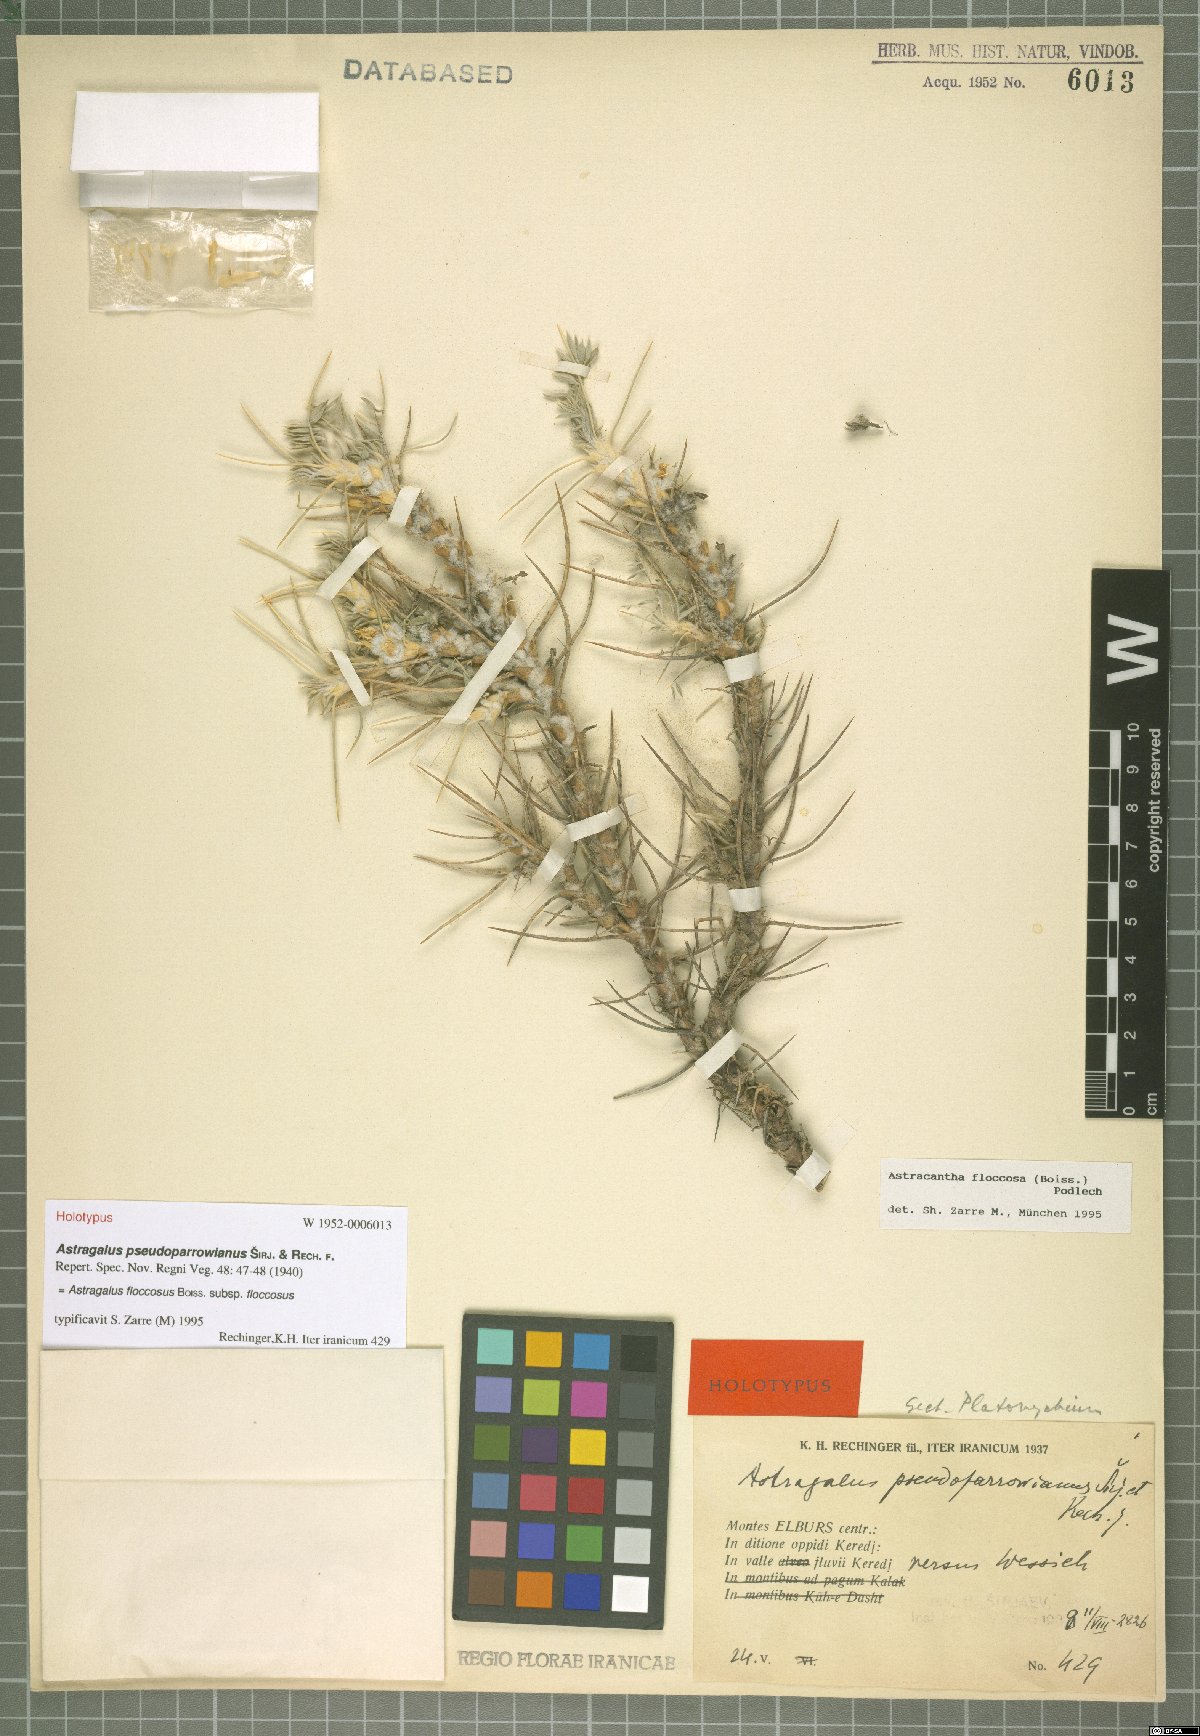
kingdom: Plantae
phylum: Tracheophyta
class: Magnoliopsida
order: Fabales
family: Fabaceae
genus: Astragalus
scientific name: Astragalus floccosus
